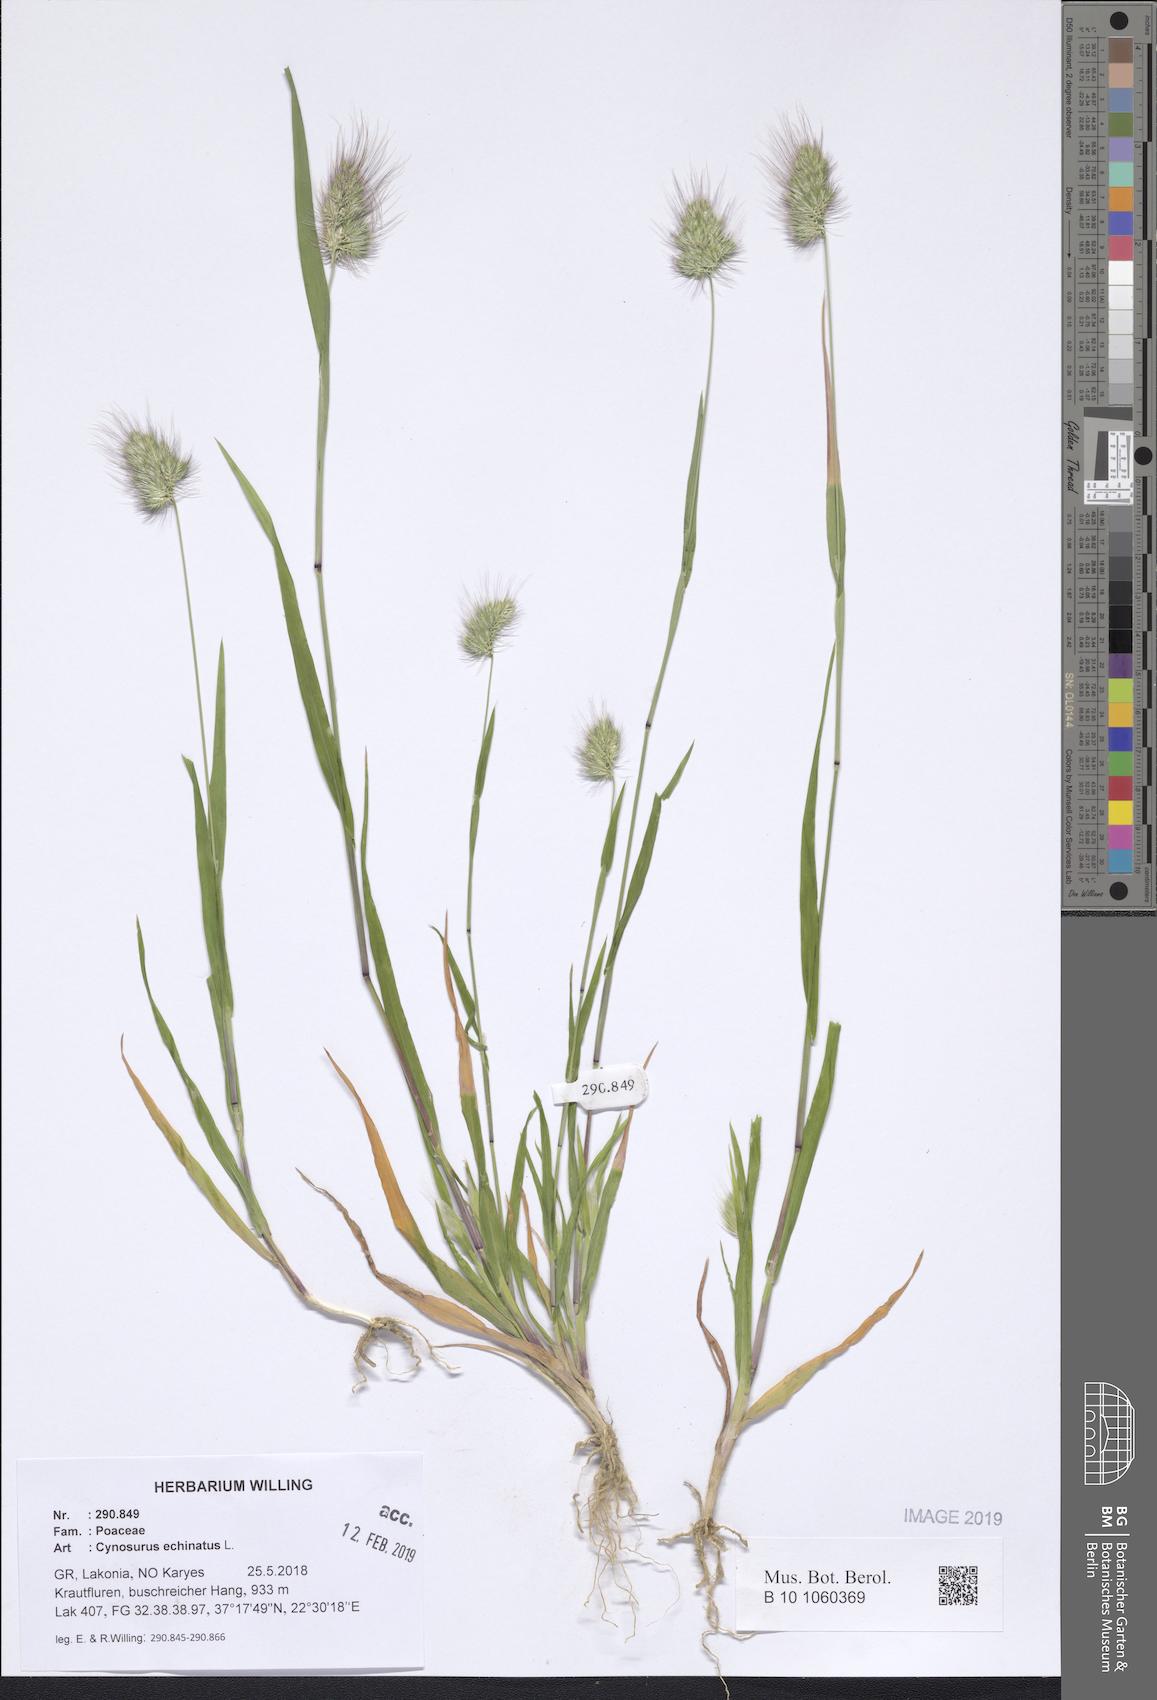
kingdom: Plantae
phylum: Tracheophyta
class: Liliopsida
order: Poales
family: Poaceae
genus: Cynosurus
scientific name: Cynosurus echinatus
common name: Rough dog's-tail
